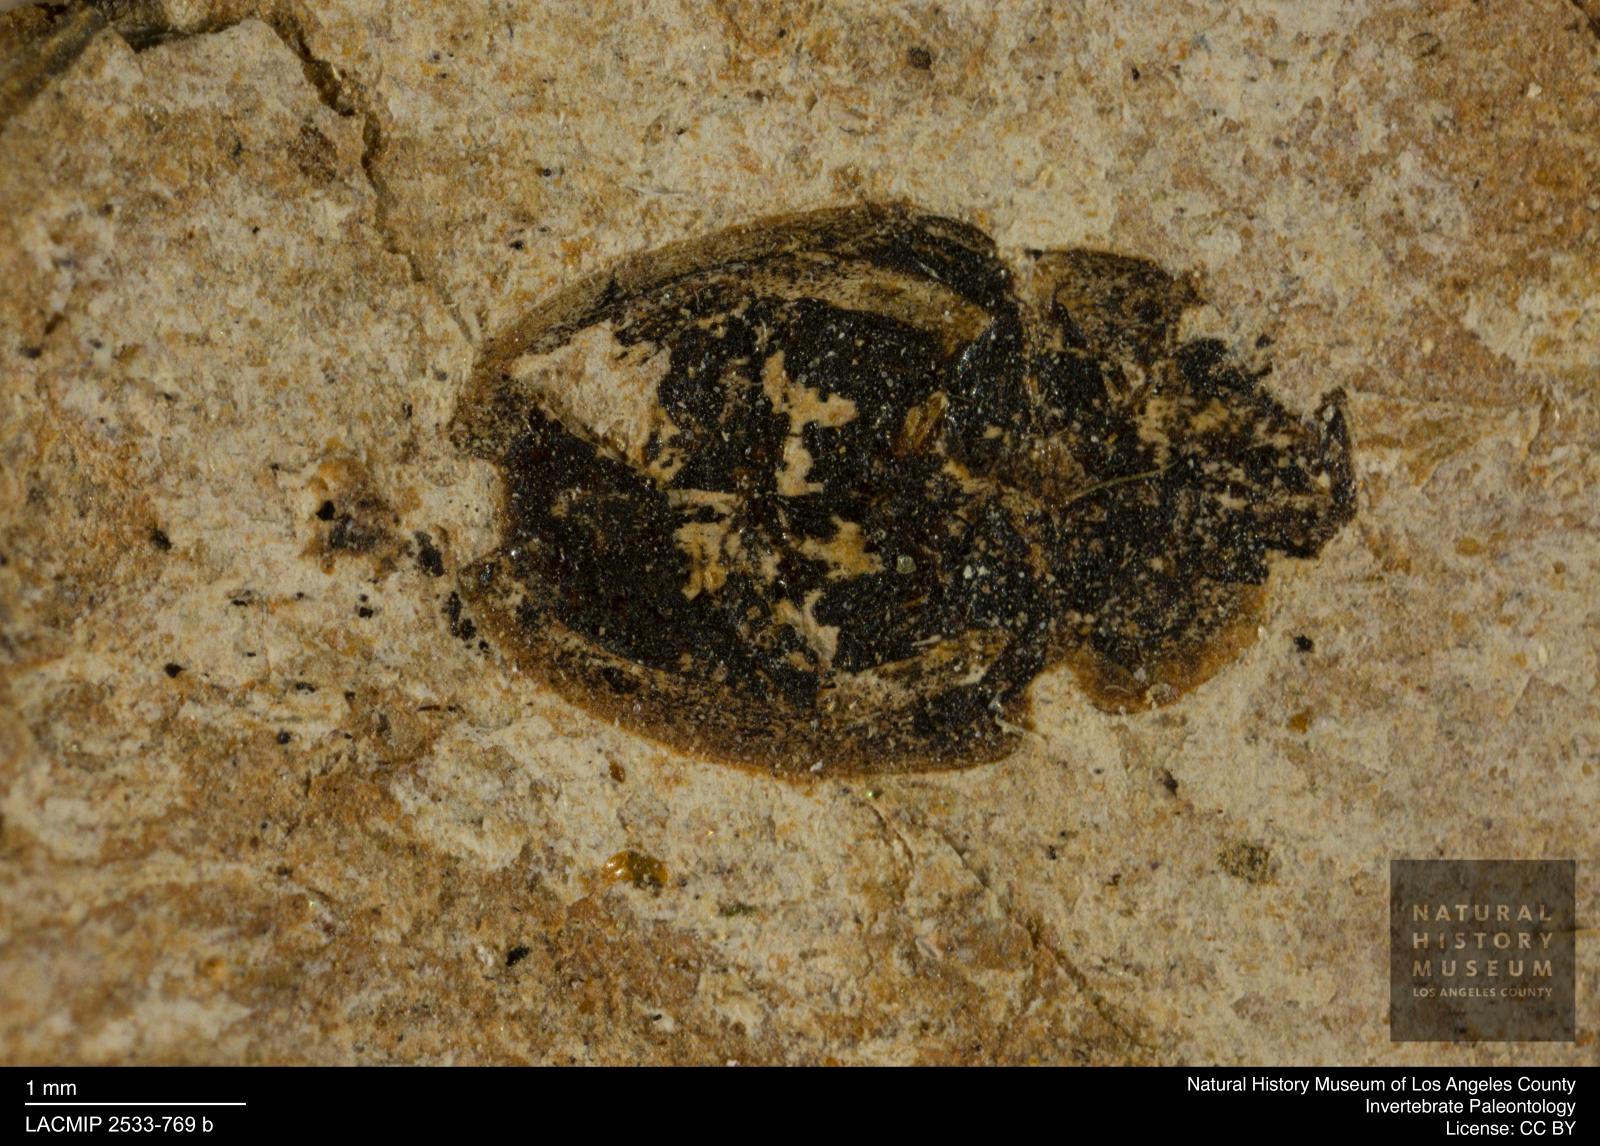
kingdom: Animalia
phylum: Arthropoda
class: Insecta
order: Coleoptera
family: Hydrophilidae
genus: Paracymus
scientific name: Paracymus
